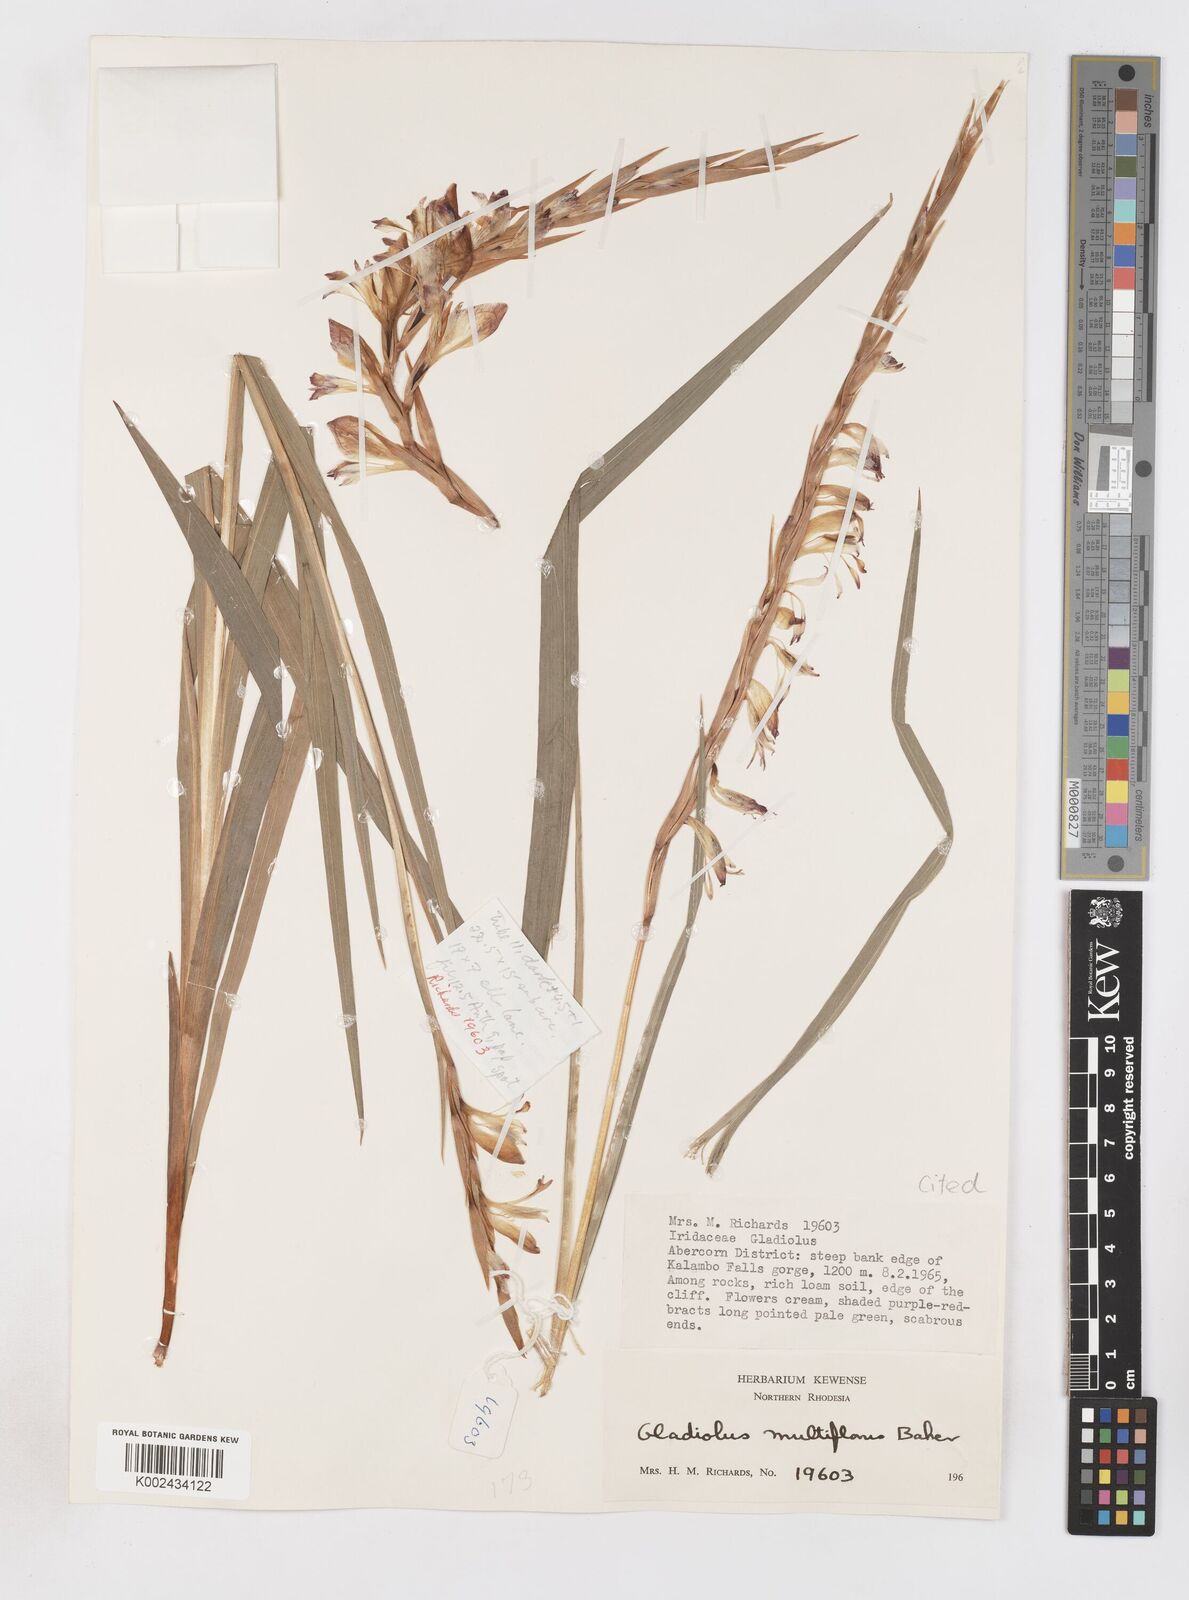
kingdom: Plantae
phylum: Tracheophyta
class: Liliopsida
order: Asparagales
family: Iridaceae
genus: Gladiolus
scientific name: Gladiolus gregarius
